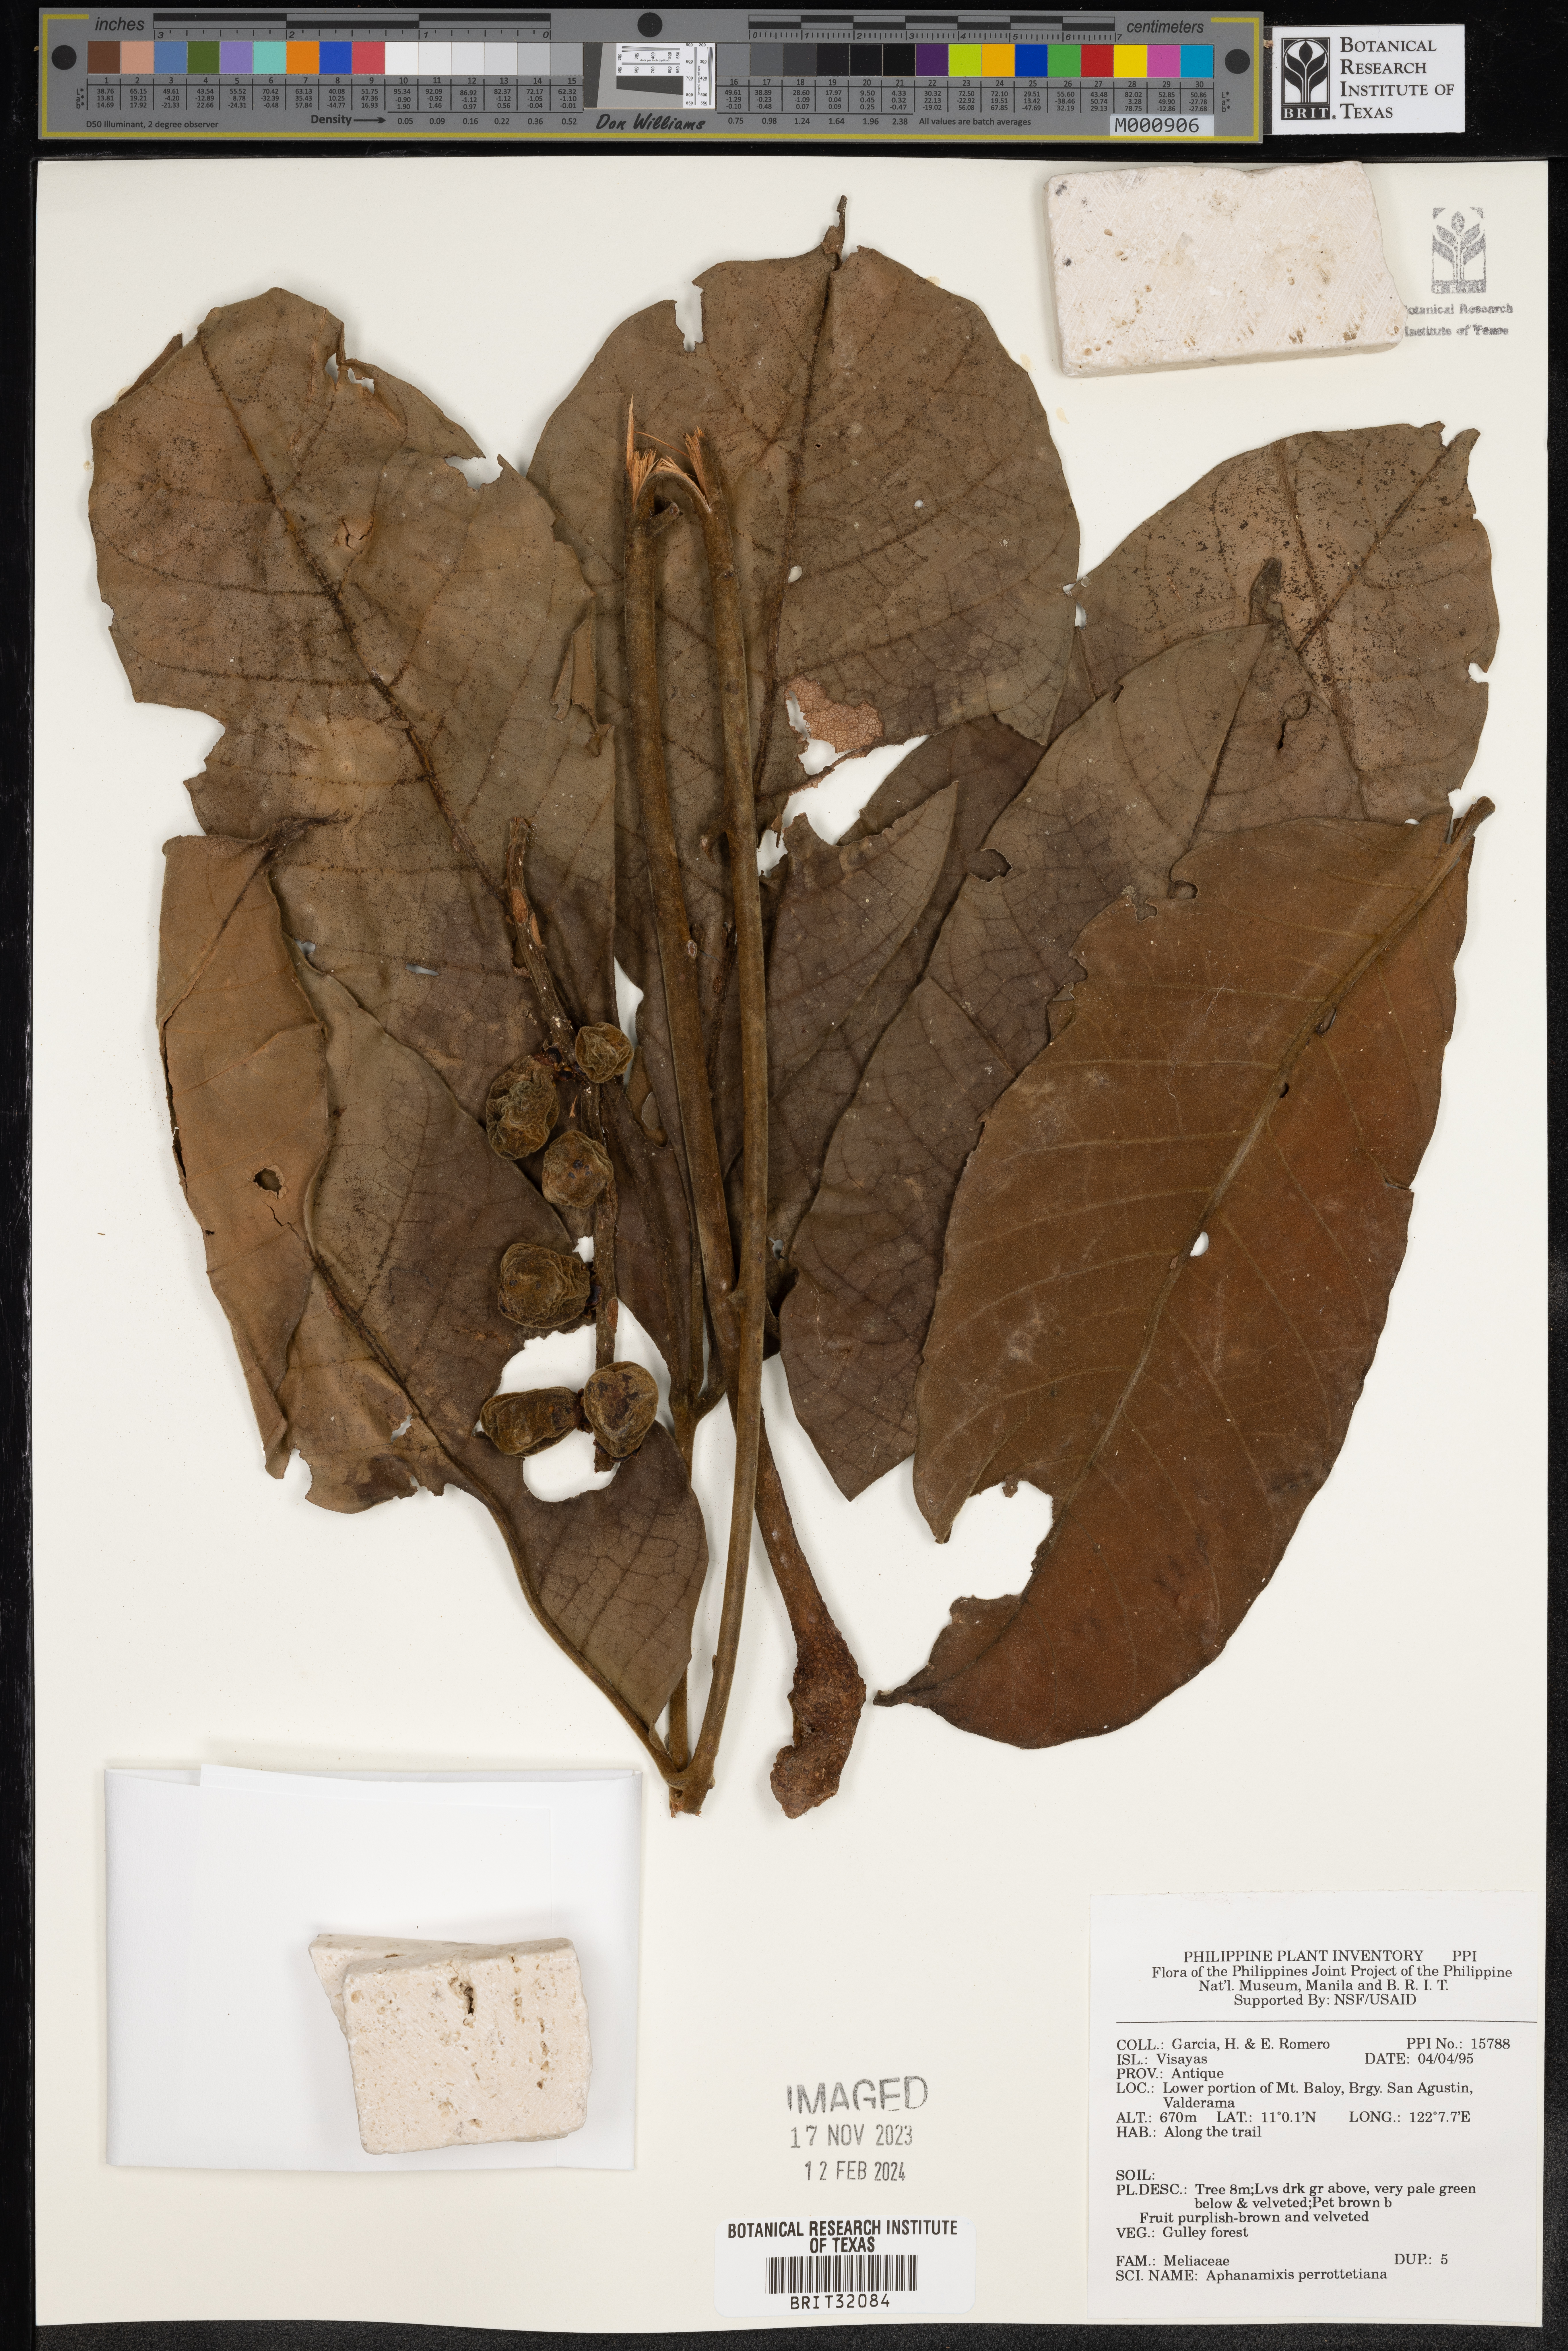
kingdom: Plantae
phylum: Tracheophyta
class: Magnoliopsida
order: Sapindales
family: Meliaceae
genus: Aphanamixis
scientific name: Aphanamixis polystachya
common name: Pithraj tree
